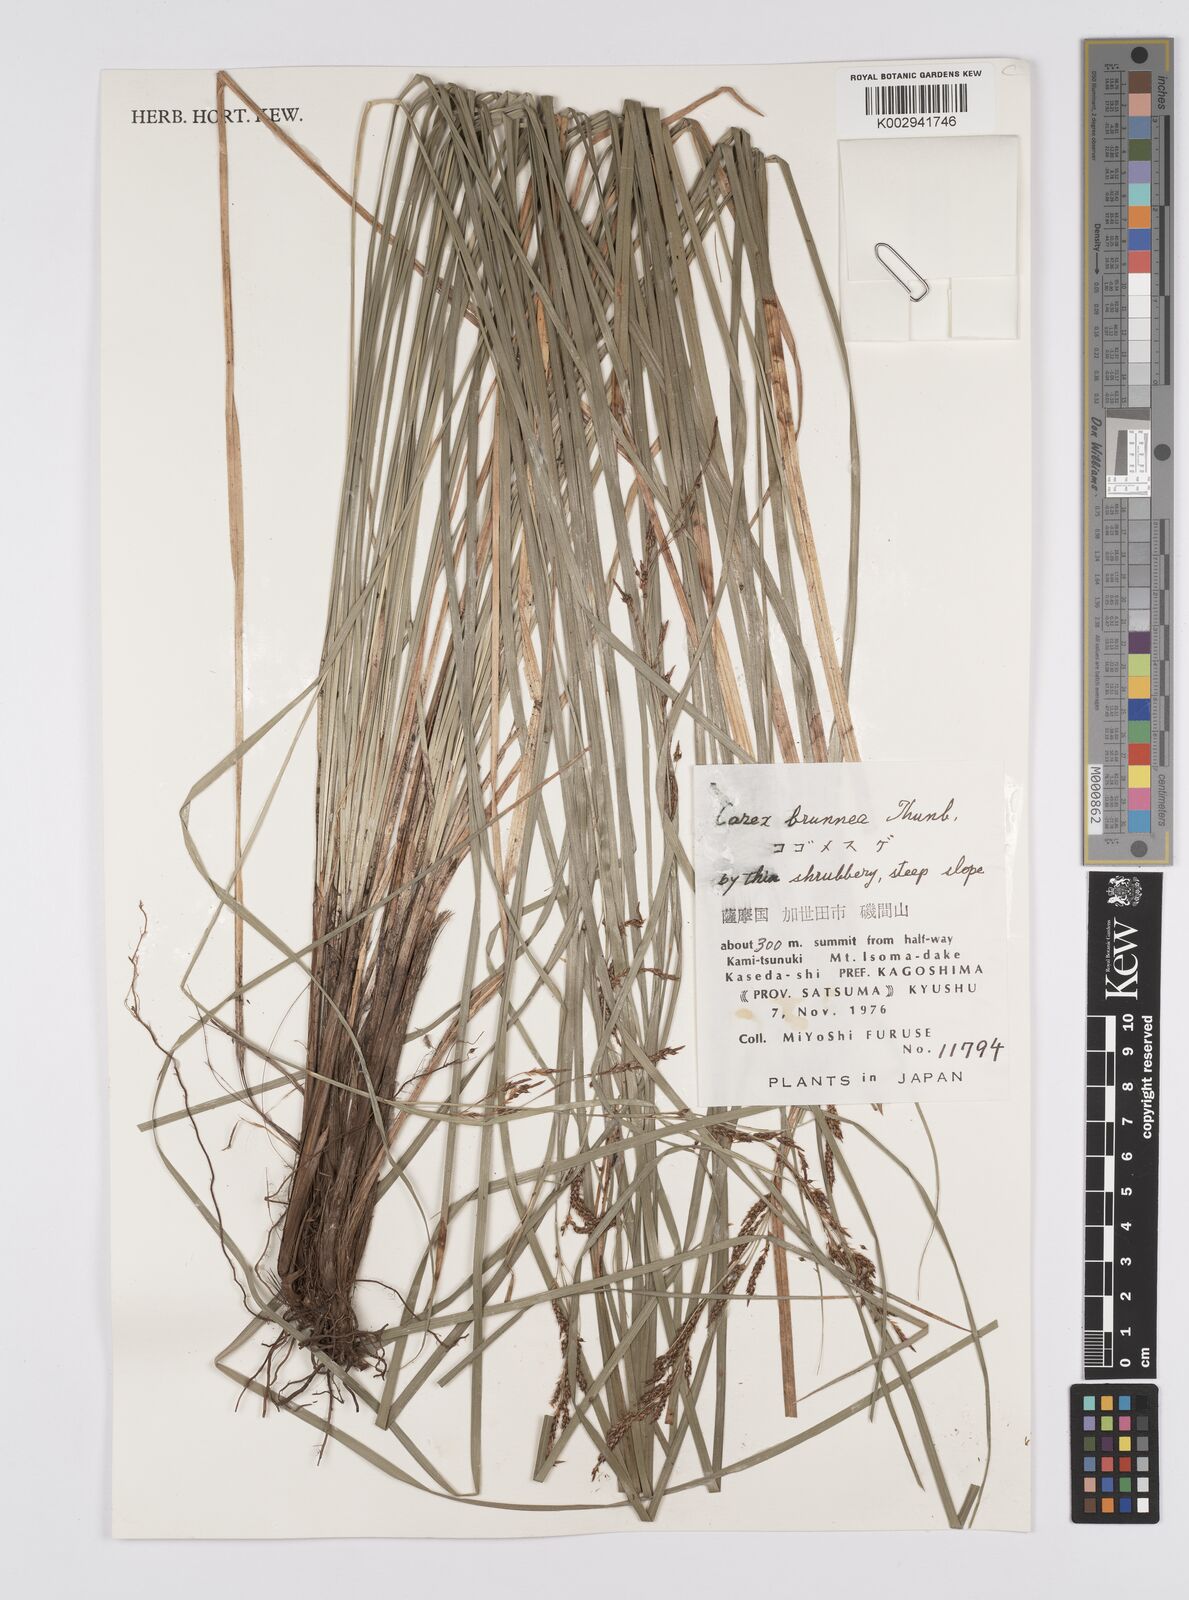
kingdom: Plantae
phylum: Tracheophyta
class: Liliopsida
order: Poales
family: Cyperaceae
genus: Carex
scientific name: Carex brunnea
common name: Greater brown sedge
